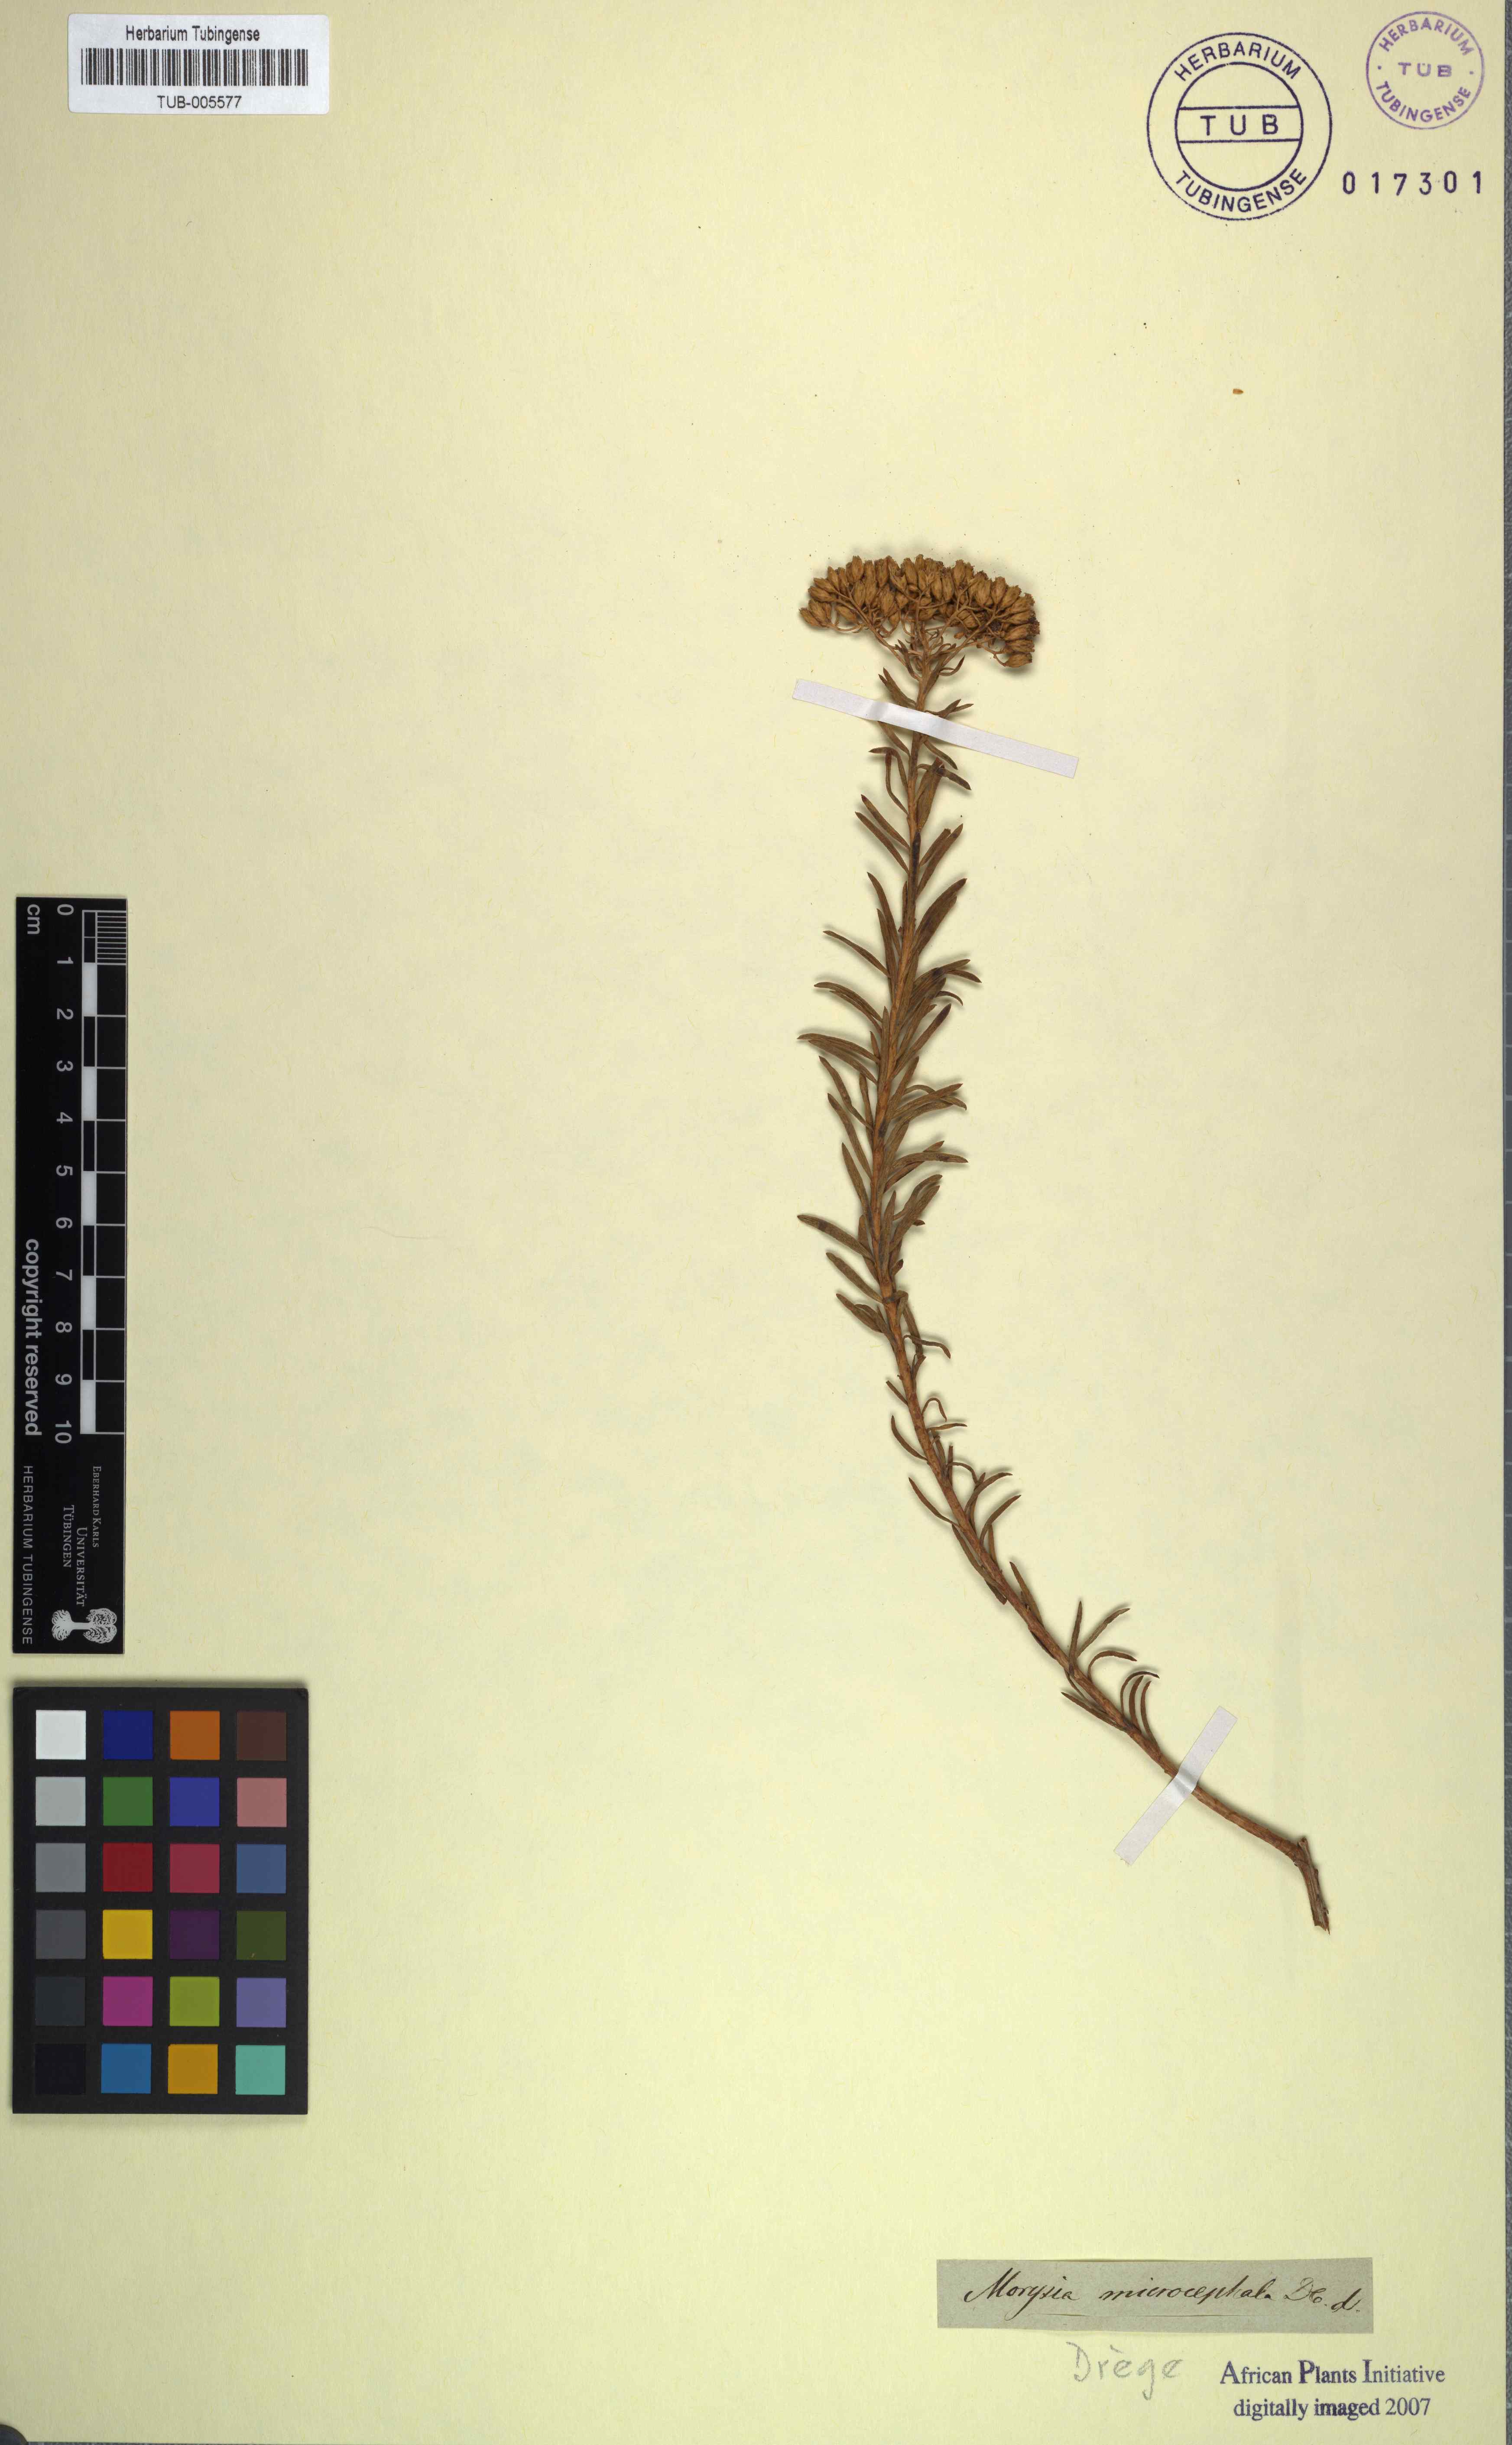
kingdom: Plantae
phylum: Tracheophyta
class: Magnoliopsida
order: Asterales
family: Asteraceae
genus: Athanasia
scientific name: Athanasia microcephala
